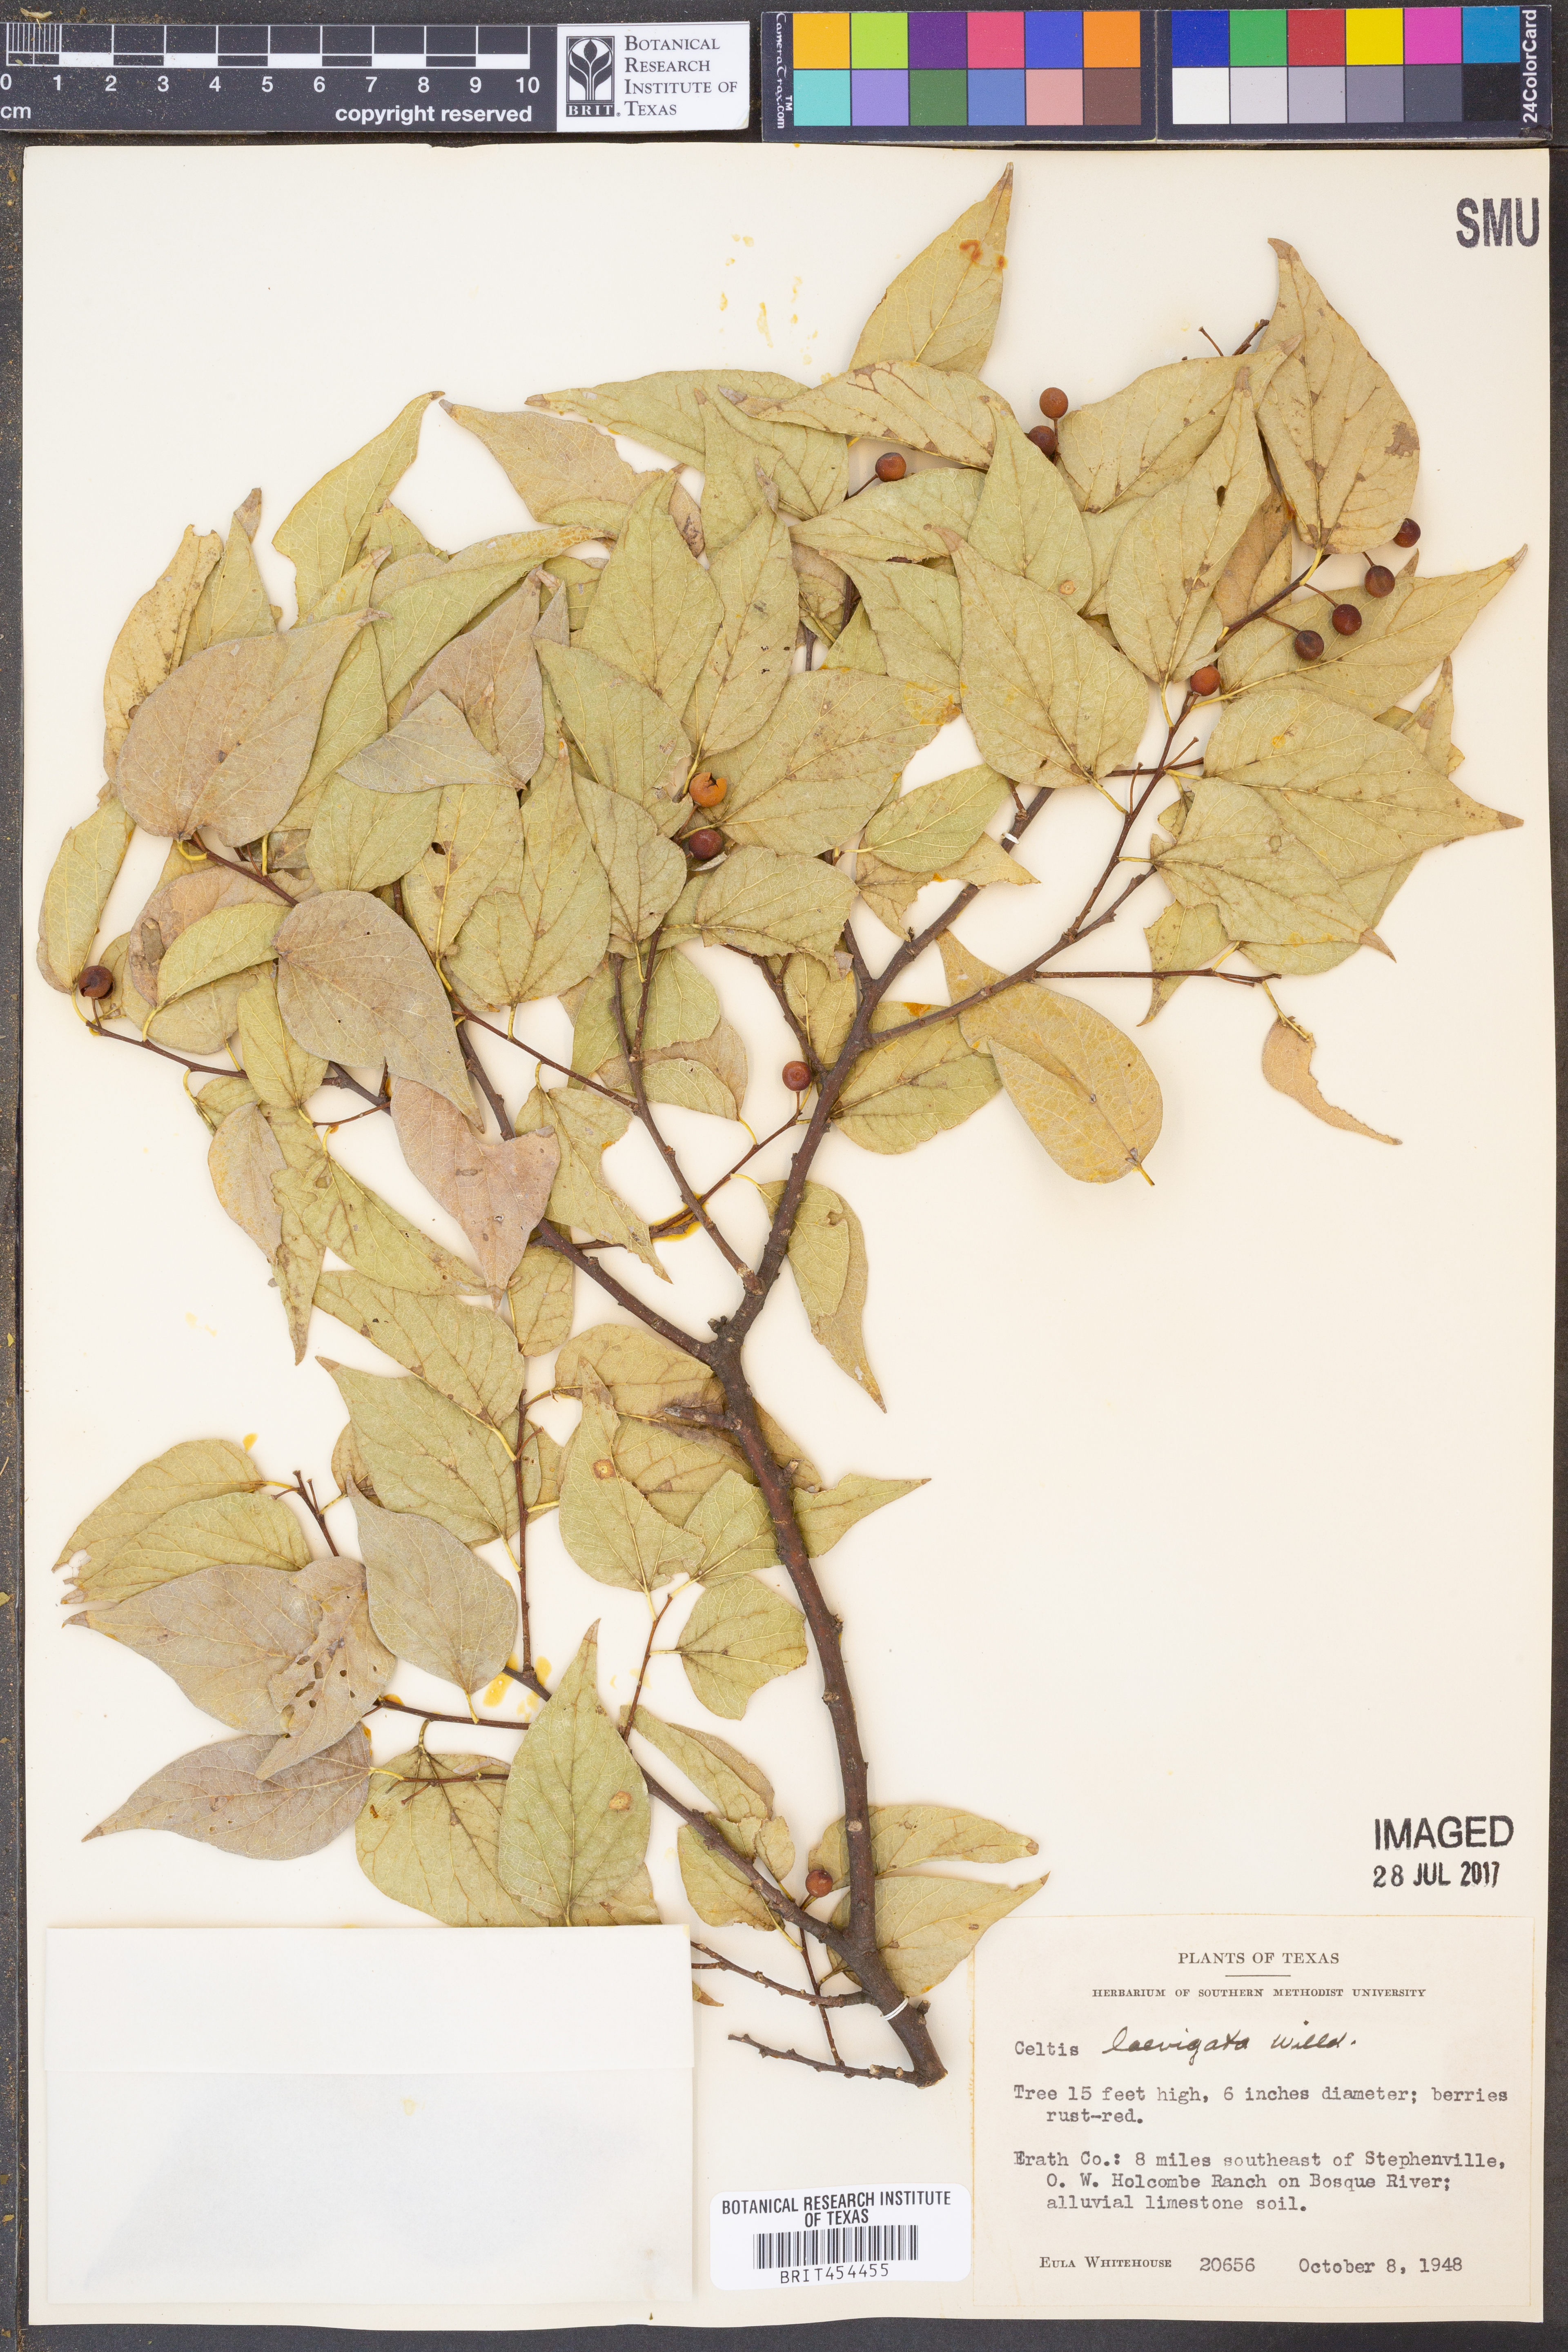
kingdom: Plantae
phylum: Tracheophyta
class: Magnoliopsida
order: Rosales
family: Cannabaceae
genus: Celtis
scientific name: Celtis laevigata
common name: Sugarberry
